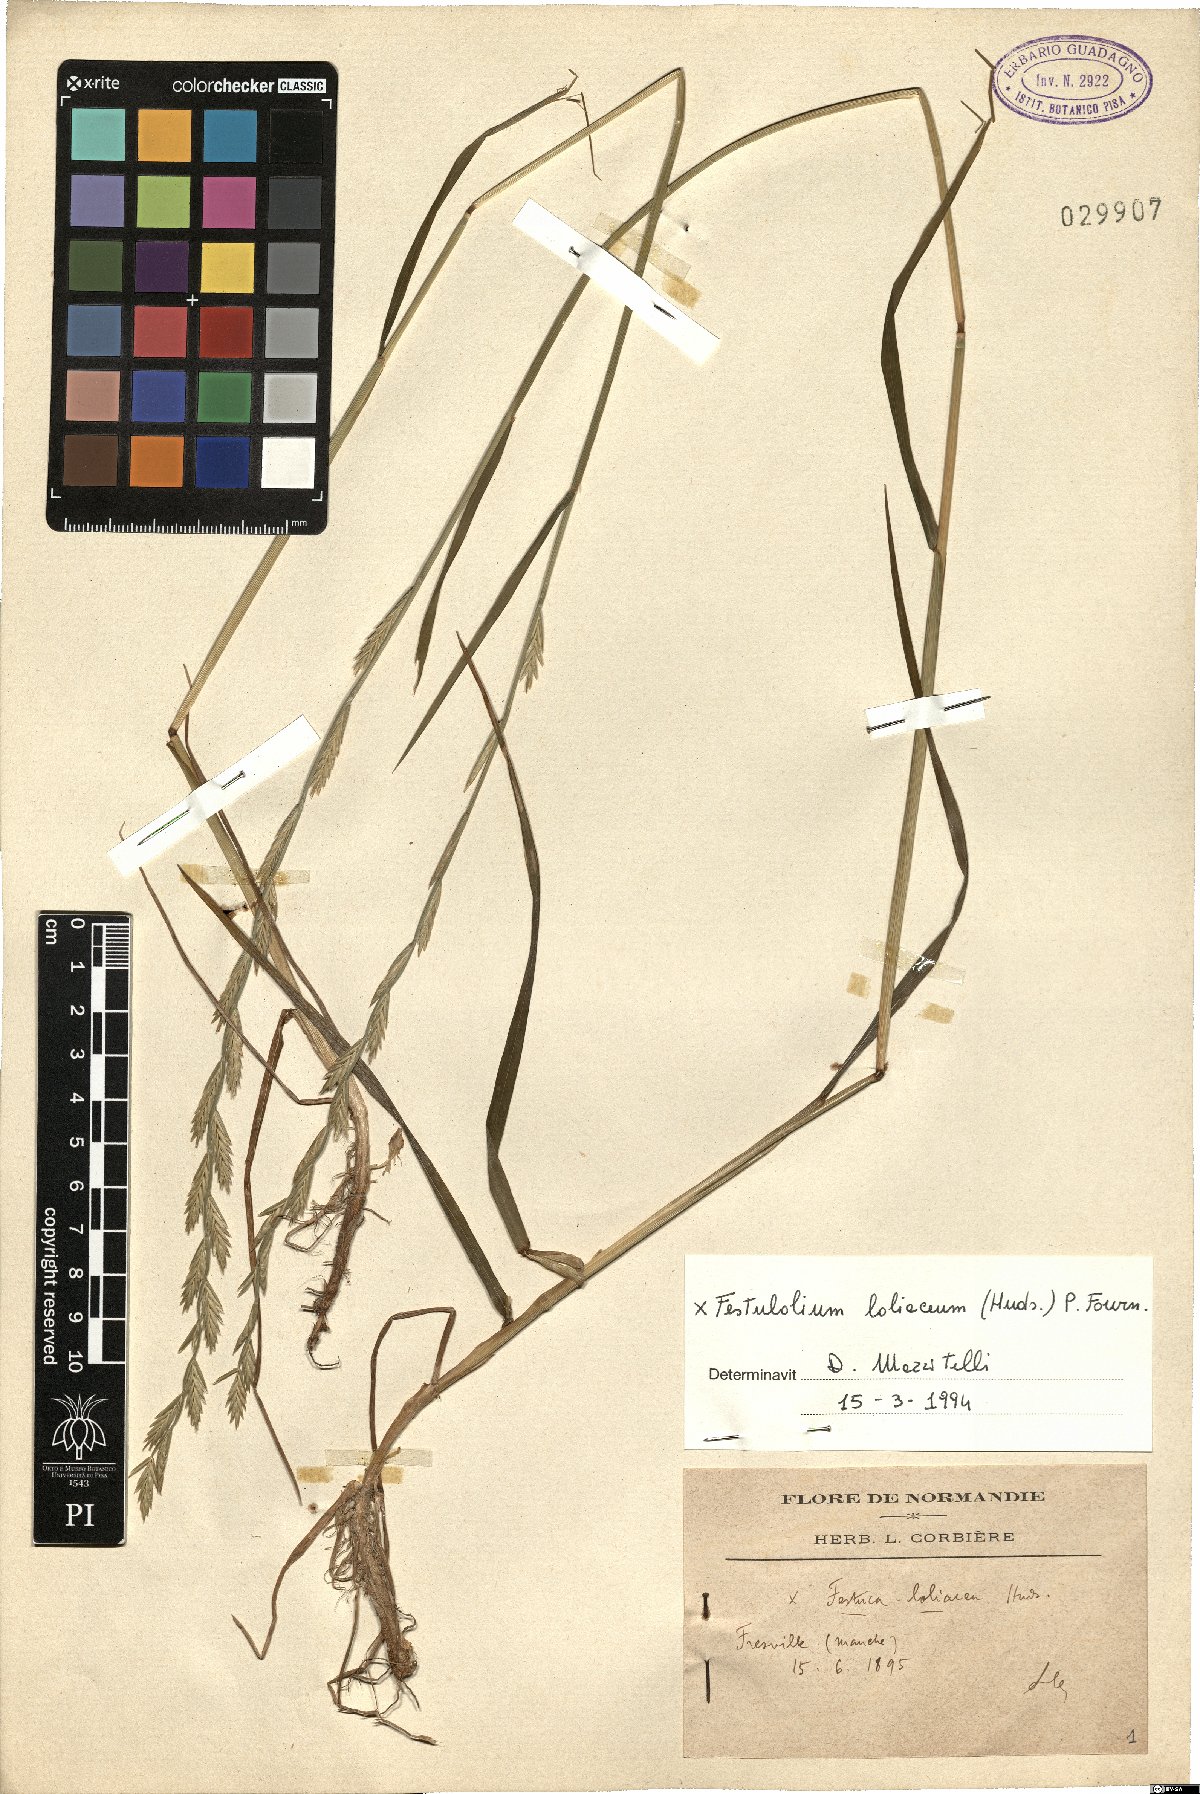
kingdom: Plantae
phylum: Tracheophyta
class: Liliopsida
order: Poales
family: Poaceae
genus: Lolium
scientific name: Lolium elongatum
